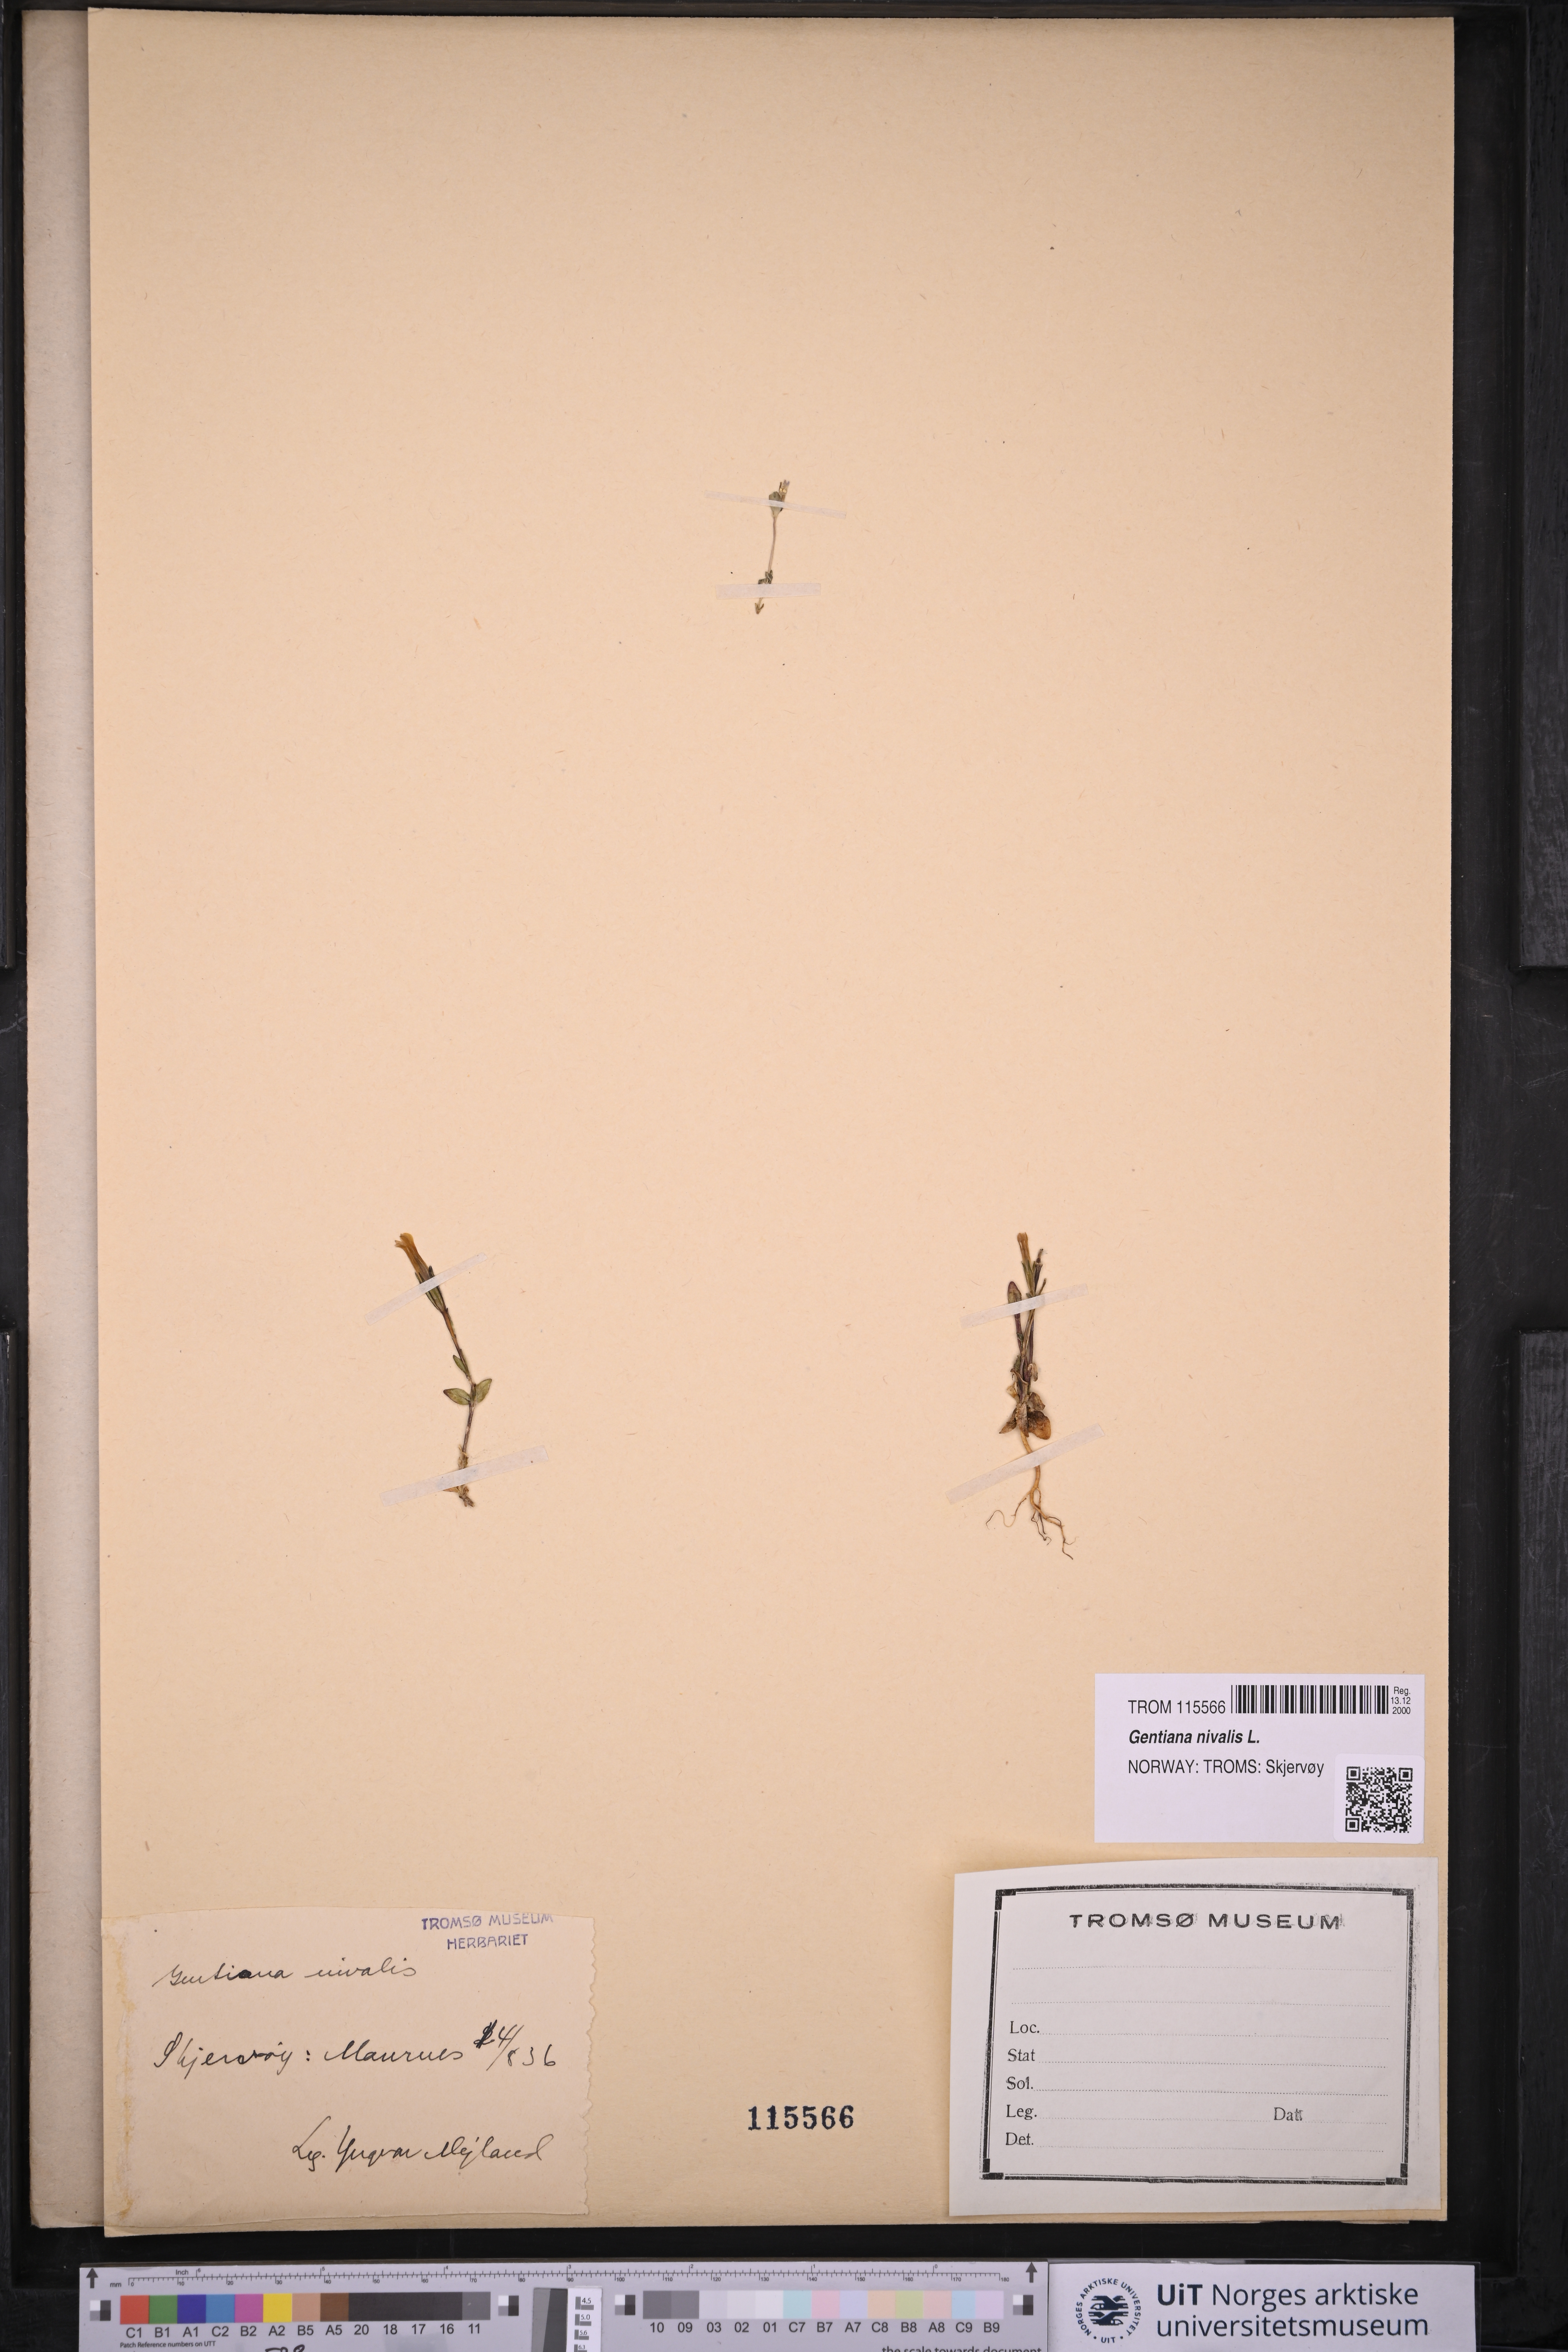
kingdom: Plantae
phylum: Tracheophyta
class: Magnoliopsida
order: Gentianales
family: Gentianaceae
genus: Gentiana
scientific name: Gentiana nivalis
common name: Alpine gentian
